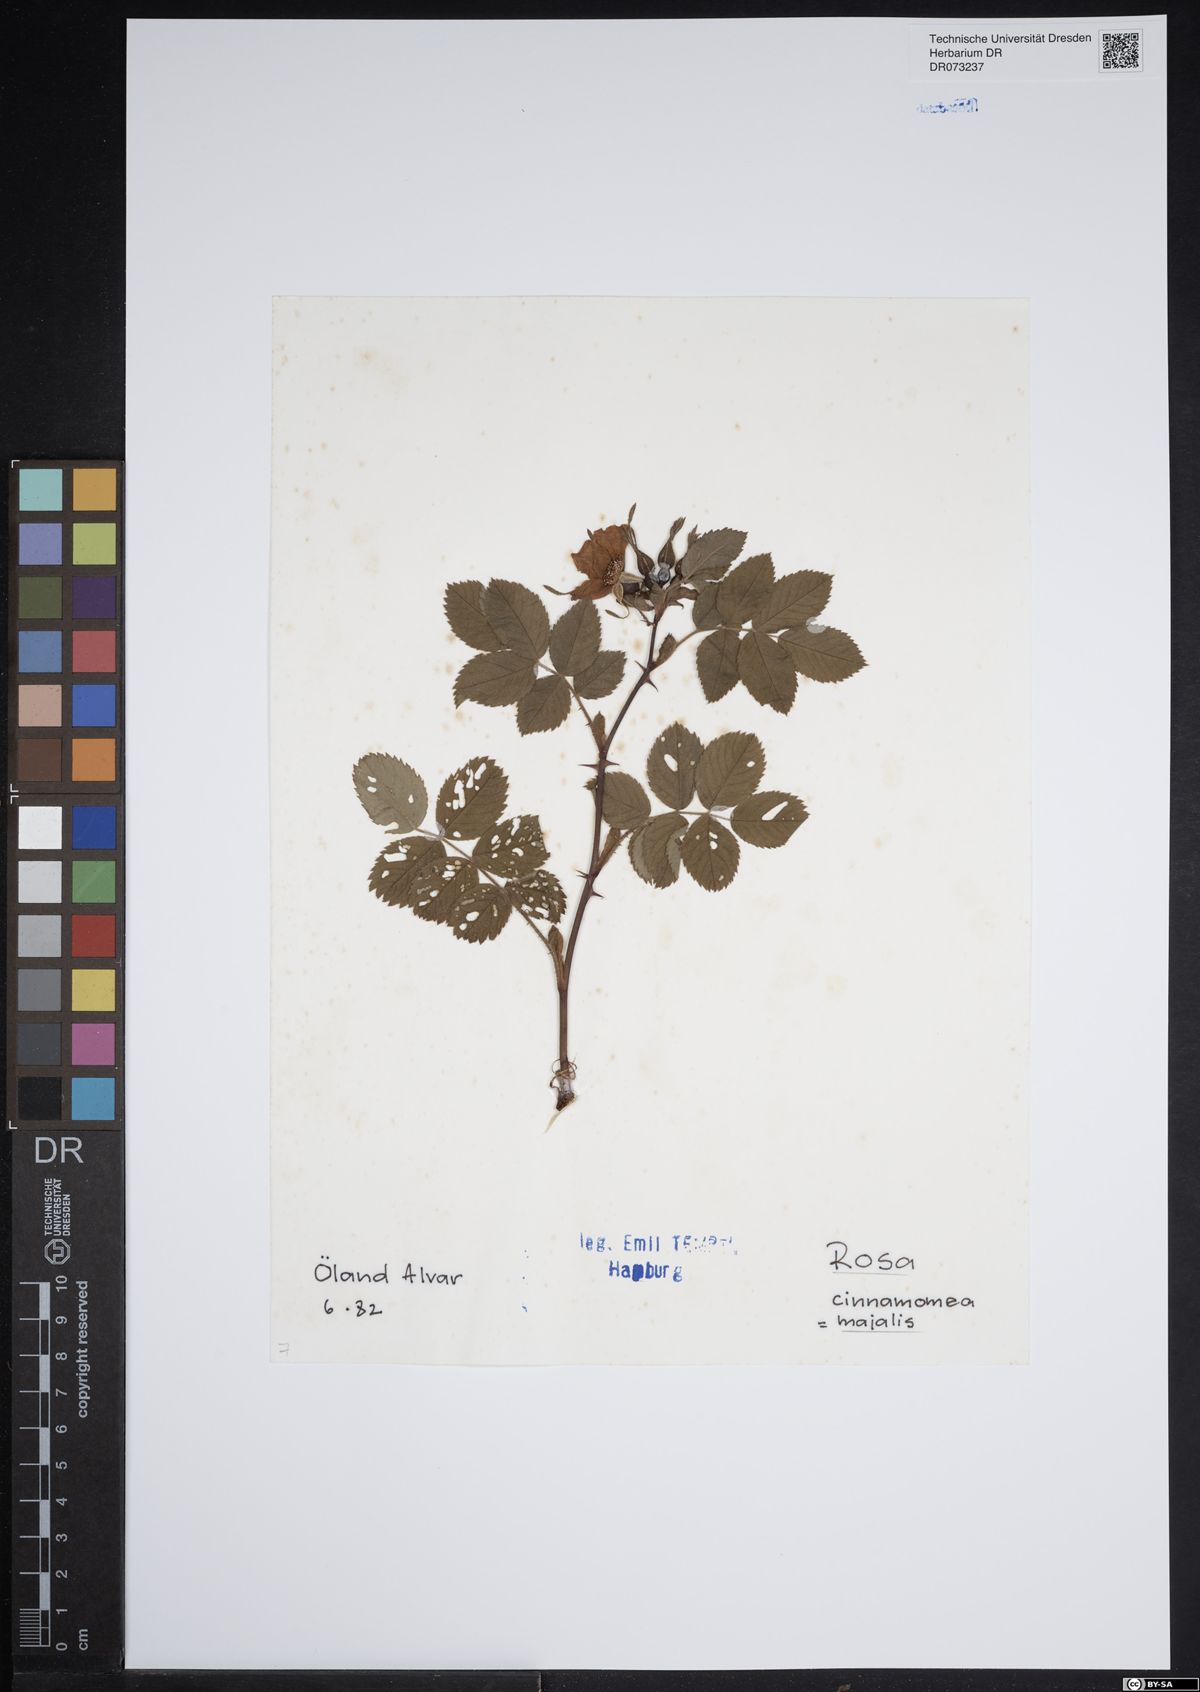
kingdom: Plantae
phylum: Tracheophyta
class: Magnoliopsida
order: Rosales
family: Rosaceae
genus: Rosa
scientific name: Rosa majalis
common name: Cinnamon rose
